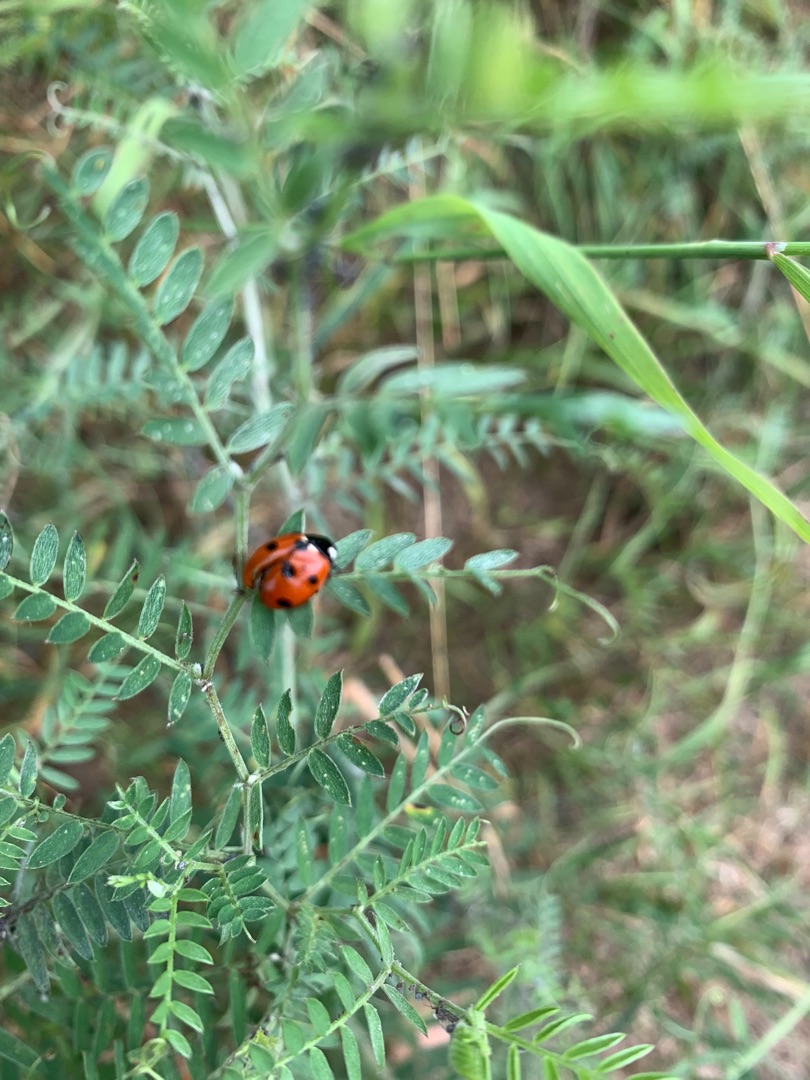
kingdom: Plantae
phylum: Tracheophyta
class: Magnoliopsida
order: Fabales
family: Fabaceae
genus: Vicia
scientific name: Vicia cracca
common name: Muse-vikke
